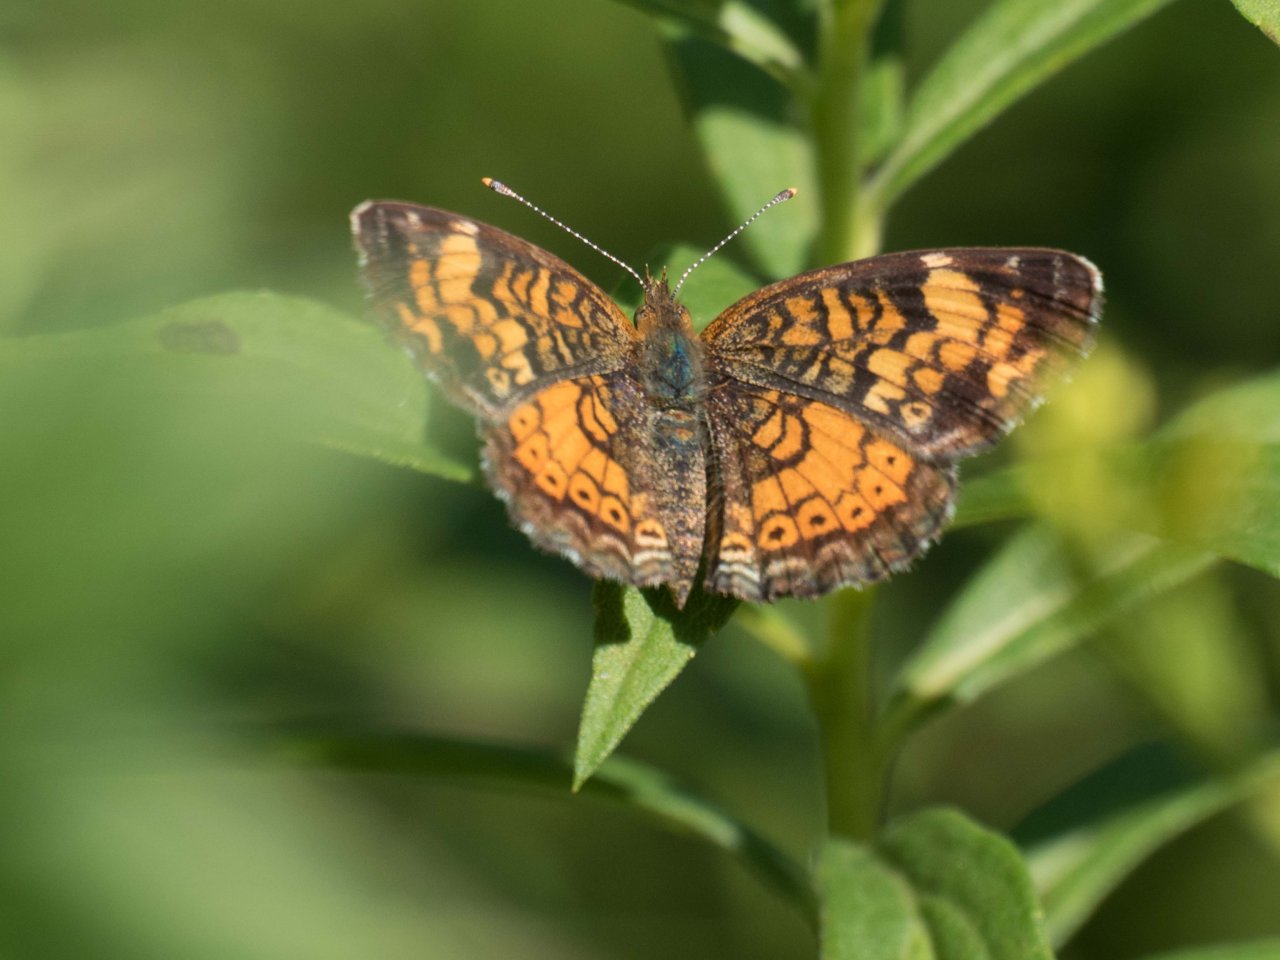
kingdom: Animalia
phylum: Arthropoda
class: Insecta
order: Lepidoptera
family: Nymphalidae
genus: Phyciodes
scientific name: Phyciodes
